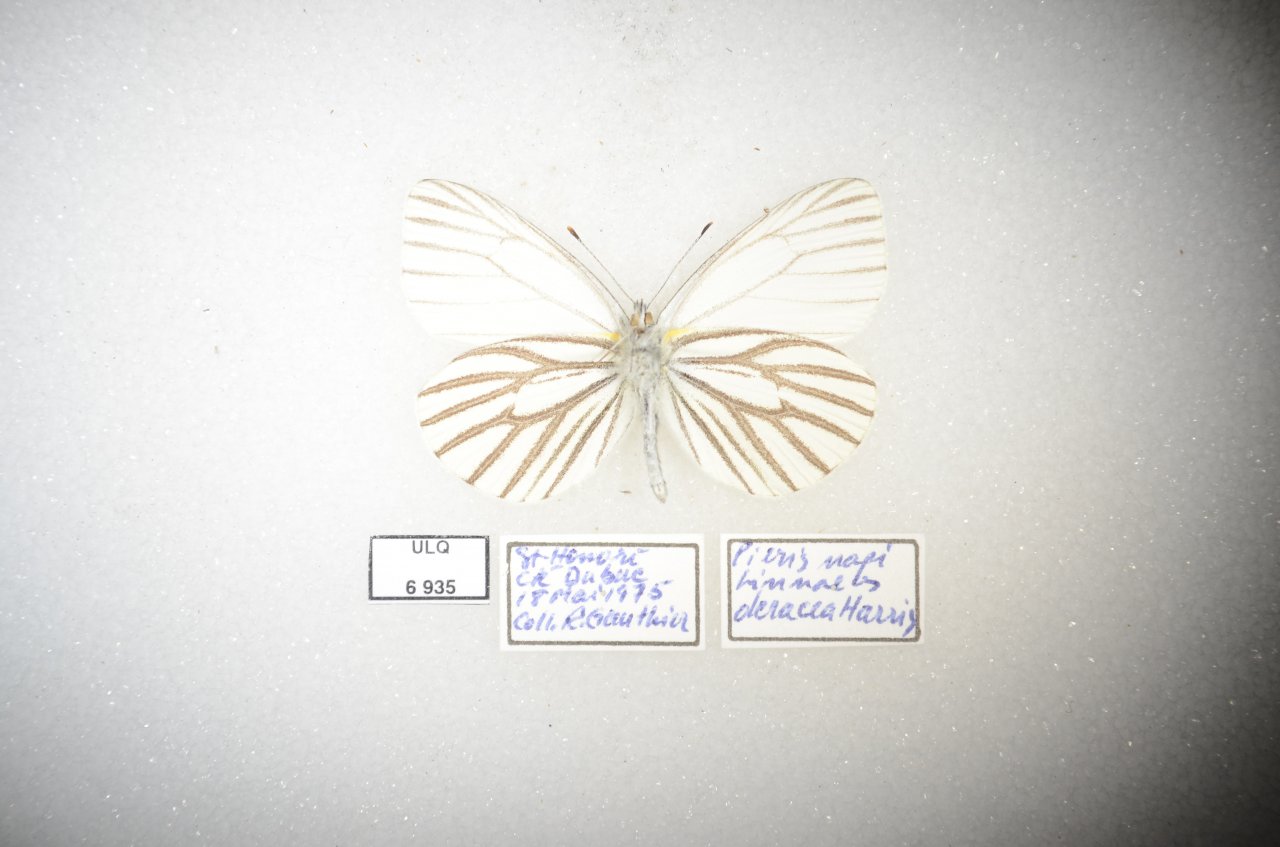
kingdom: Animalia
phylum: Arthropoda
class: Insecta
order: Lepidoptera
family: Pieridae
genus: Pieris
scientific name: Pieris oleracea
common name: Mustard White
